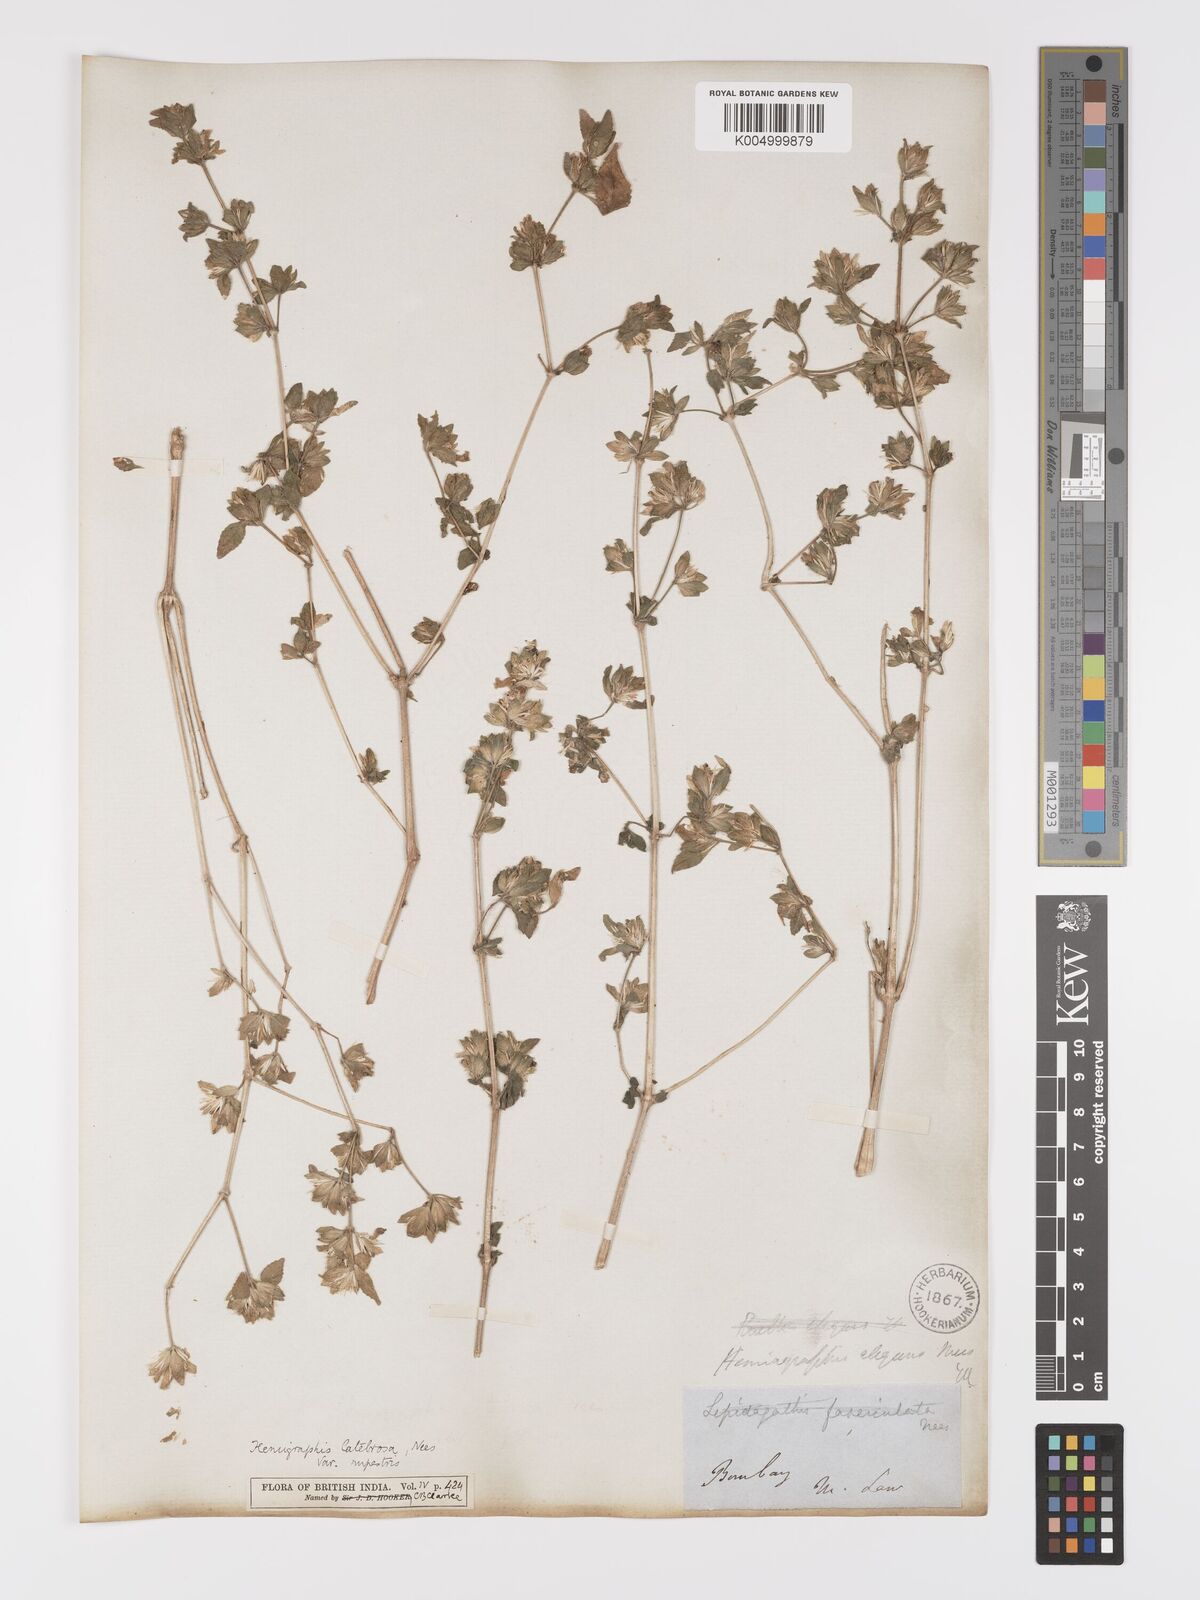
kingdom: Plantae
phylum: Tracheophyta
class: Magnoliopsida
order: Lamiales
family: Acanthaceae
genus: Strobilanthes
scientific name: Strobilanthes pavala
